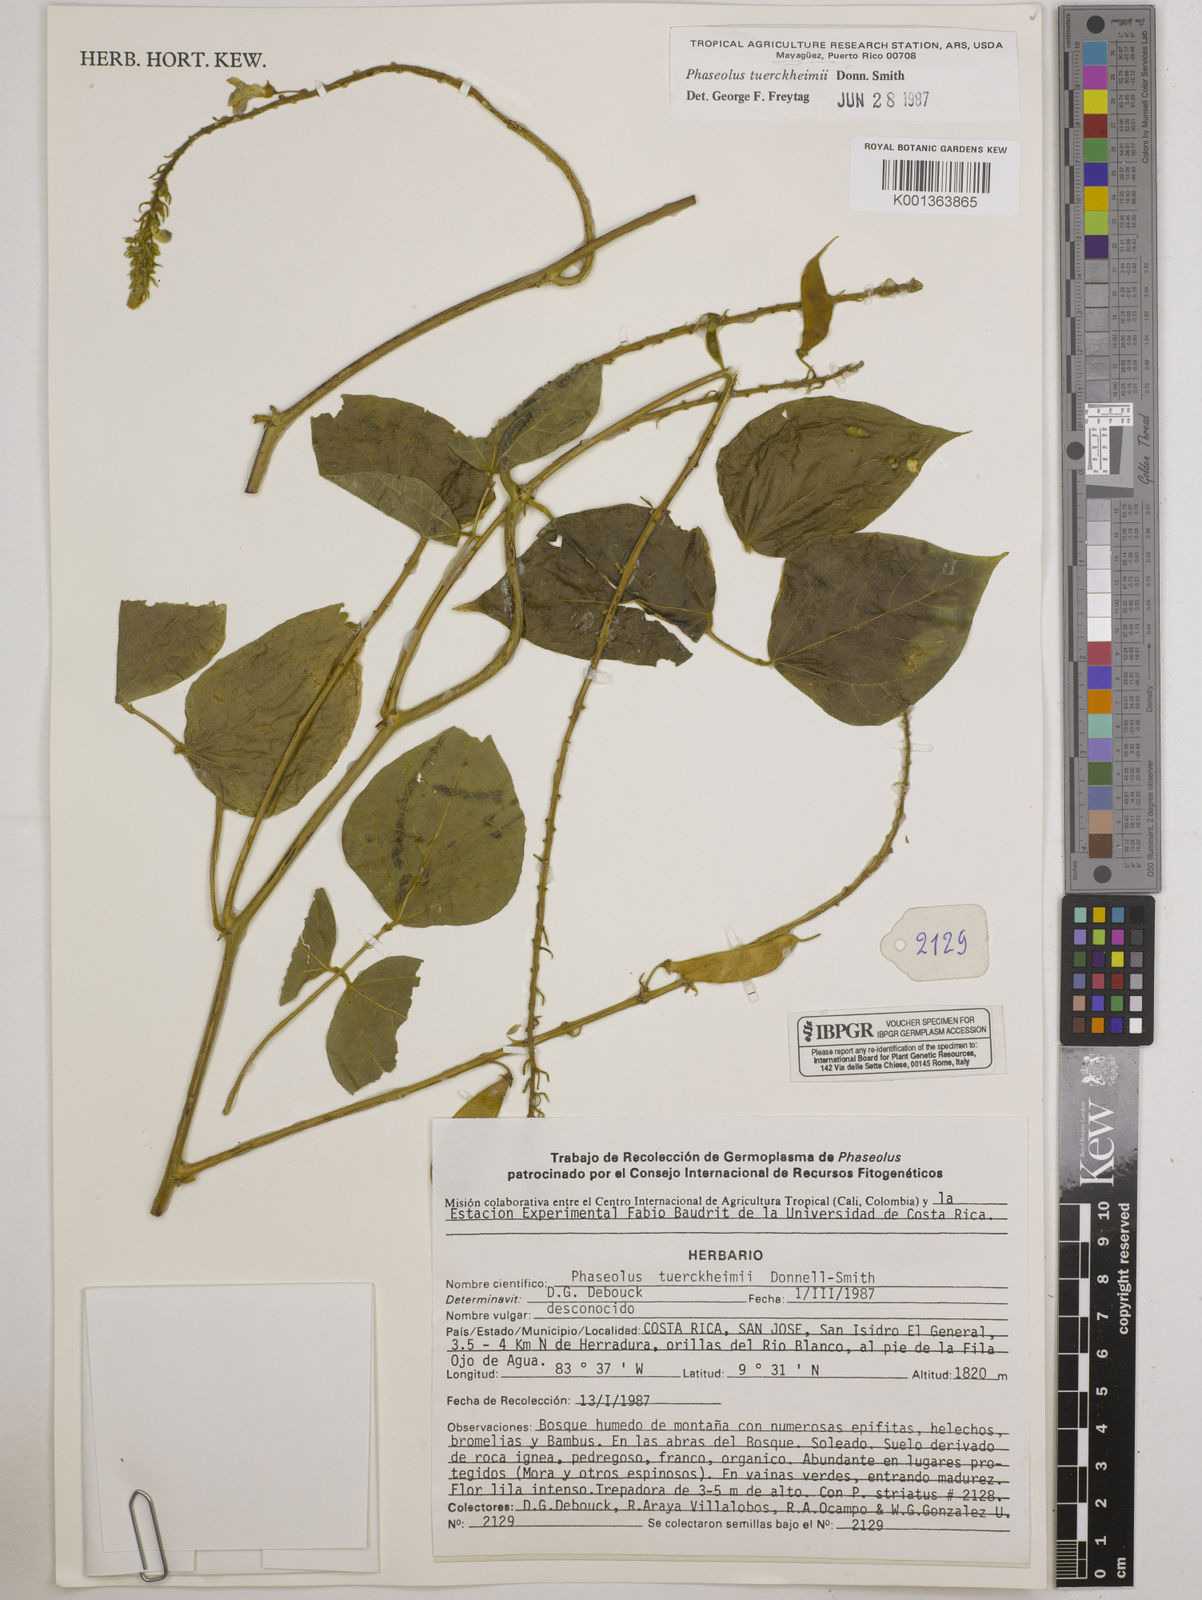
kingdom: Plantae
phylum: Tracheophyta
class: Magnoliopsida
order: Fabales
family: Fabaceae
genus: Phaseolus
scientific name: Phaseolus tuerckheimii
